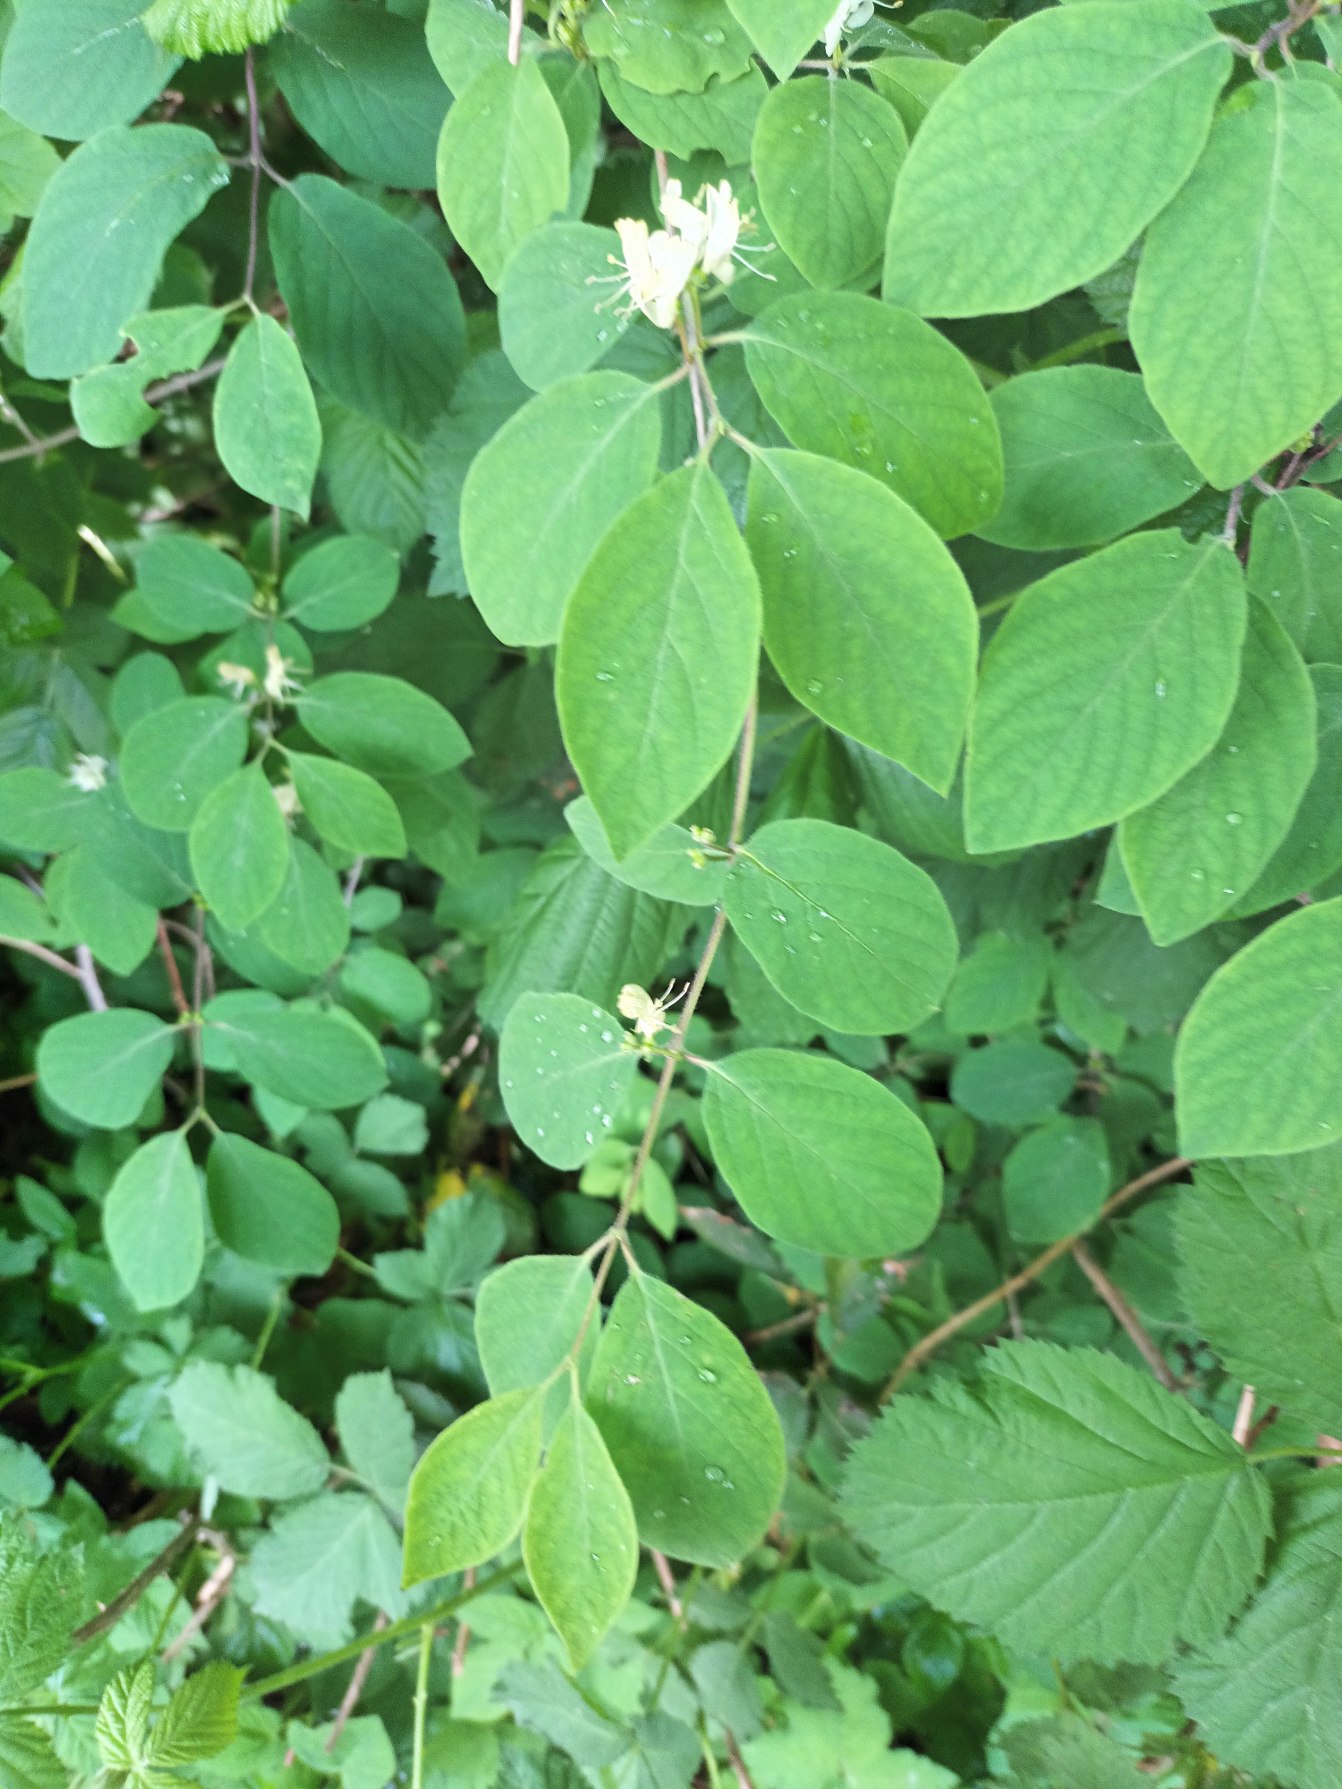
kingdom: Plantae
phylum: Tracheophyta
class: Magnoliopsida
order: Dipsacales
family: Caprifoliaceae
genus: Lonicera
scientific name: Lonicera xylosteum
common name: Dunet gedeblad
